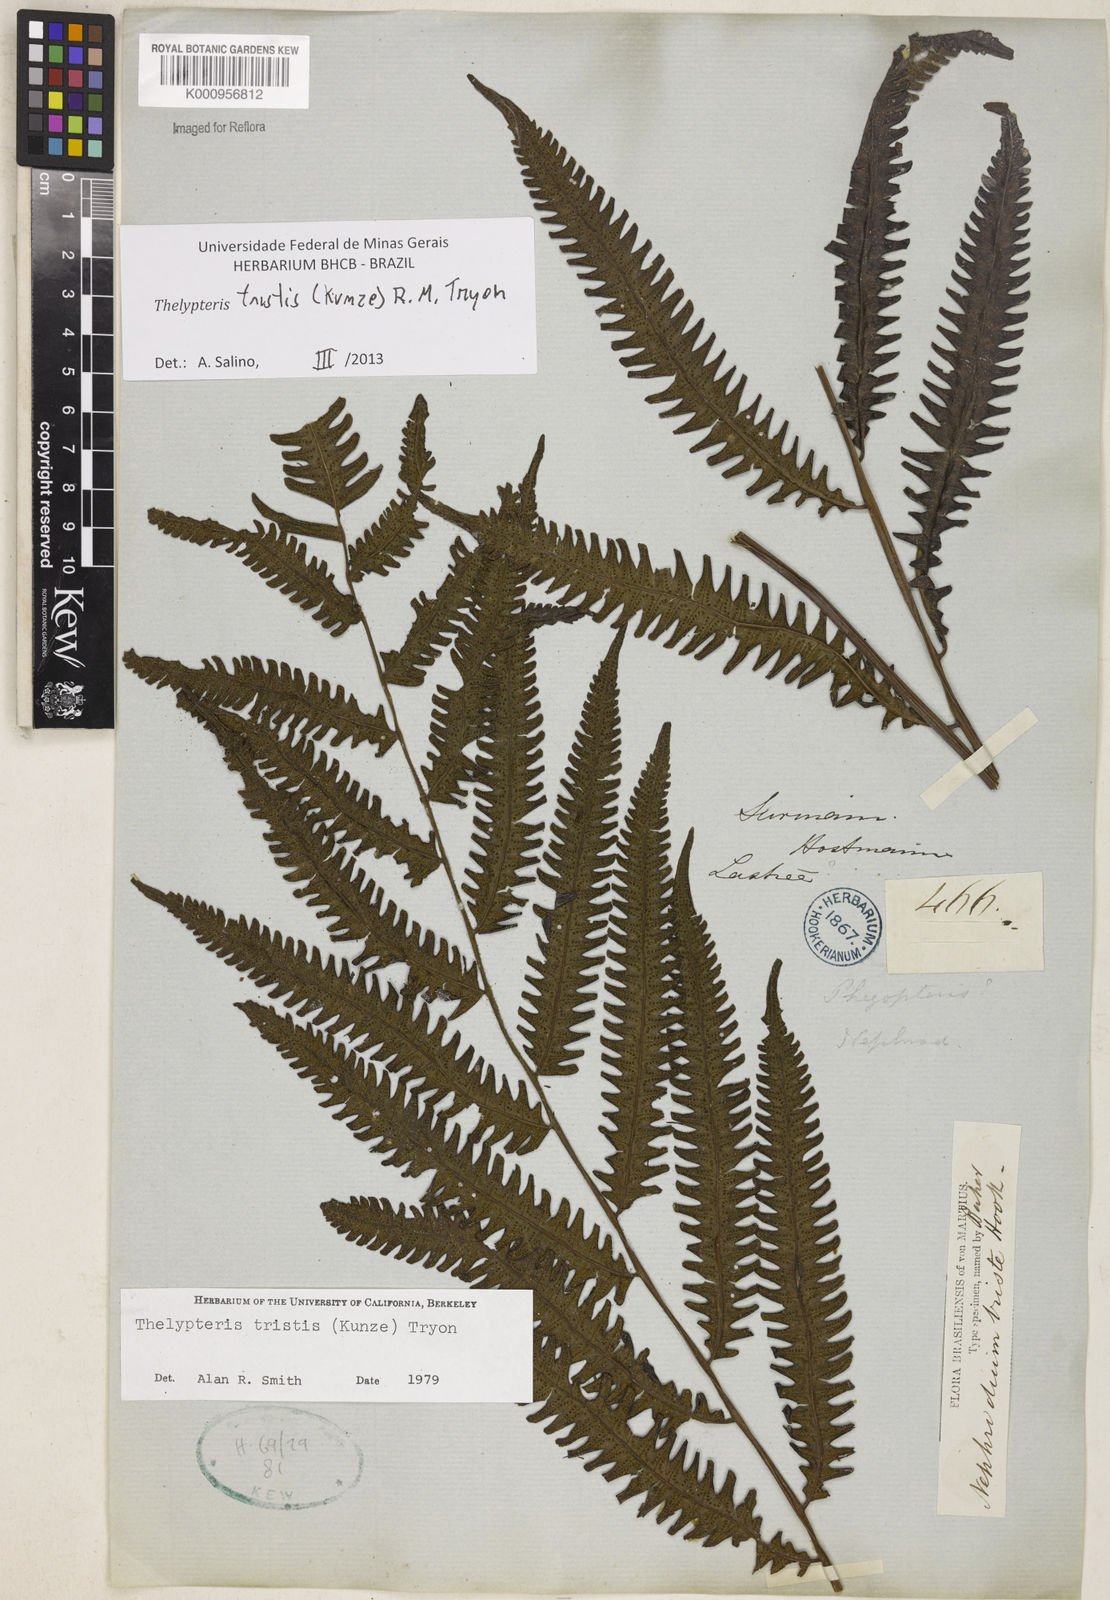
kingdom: Plantae
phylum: Tracheophyta
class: Polypodiopsida
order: Polypodiales
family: Thelypteridaceae
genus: Goniopteris
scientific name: Goniopteris tristis
